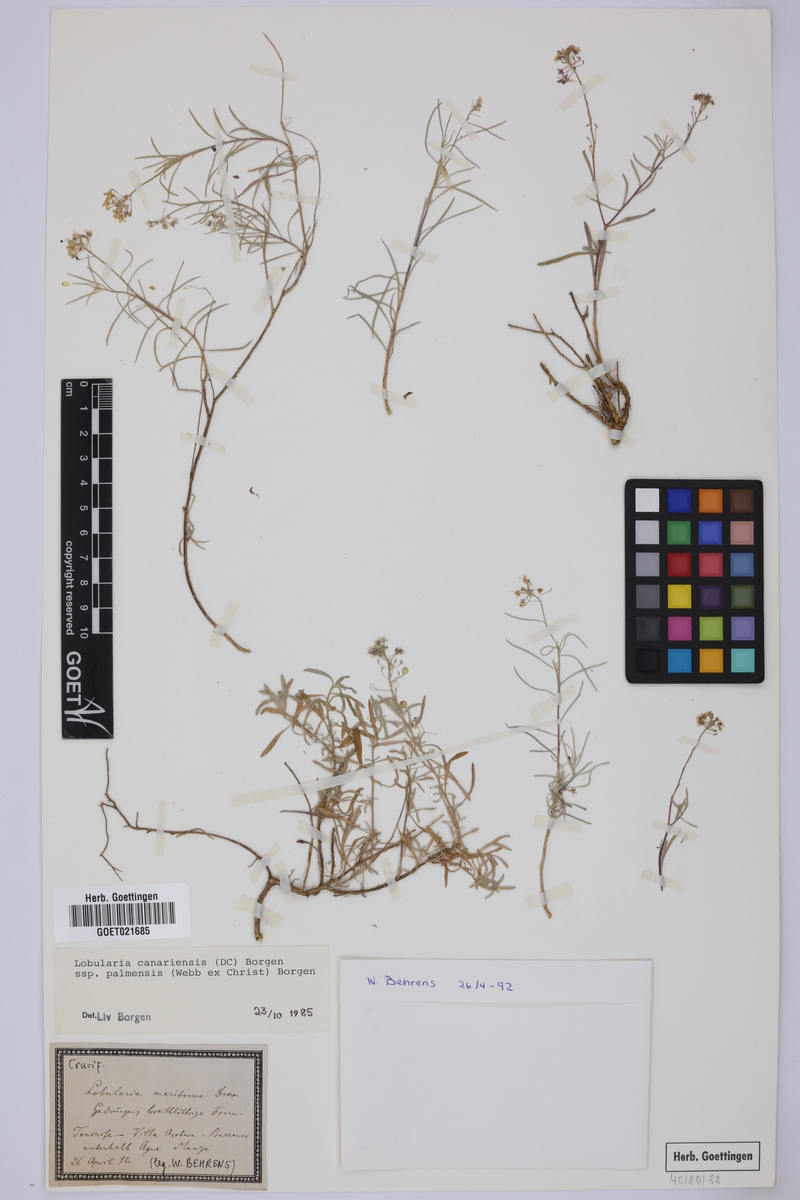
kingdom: Plantae
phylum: Tracheophyta
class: Magnoliopsida
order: Brassicales
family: Brassicaceae
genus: Lobularia
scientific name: Lobularia canariensis
